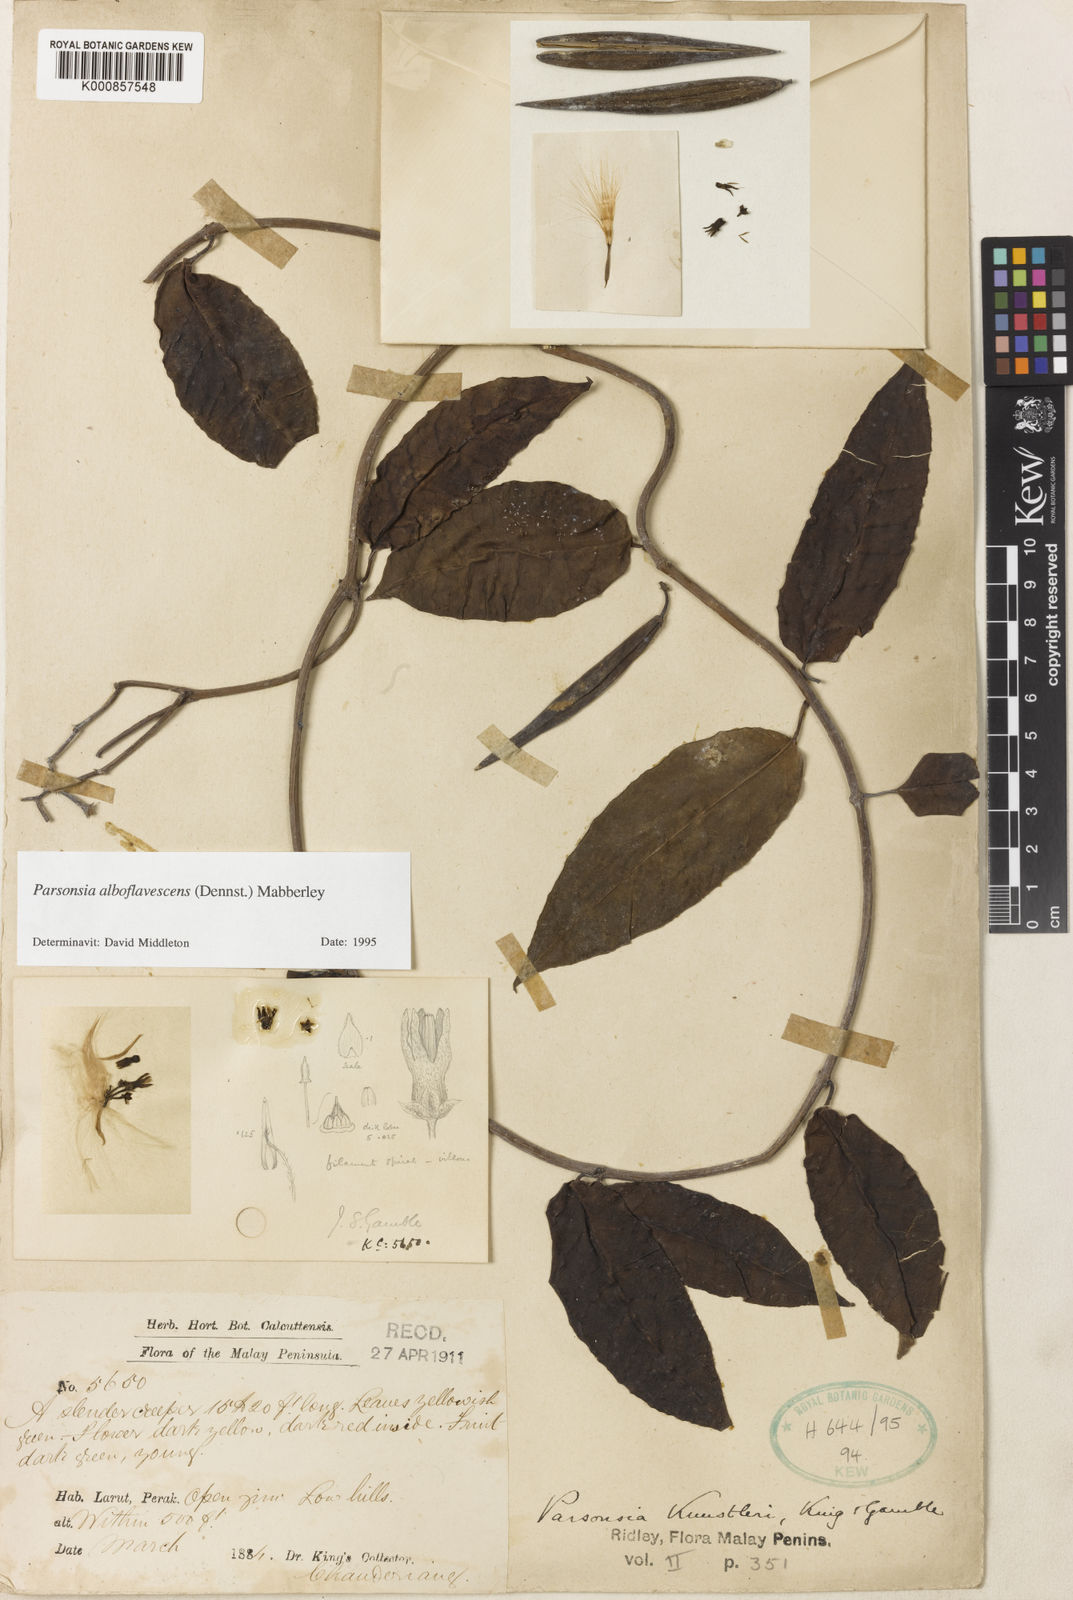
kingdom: Plantae
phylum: Tracheophyta
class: Magnoliopsida
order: Gentianales
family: Apocynaceae
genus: Parsonsia
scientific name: Parsonsia alboflavescens
